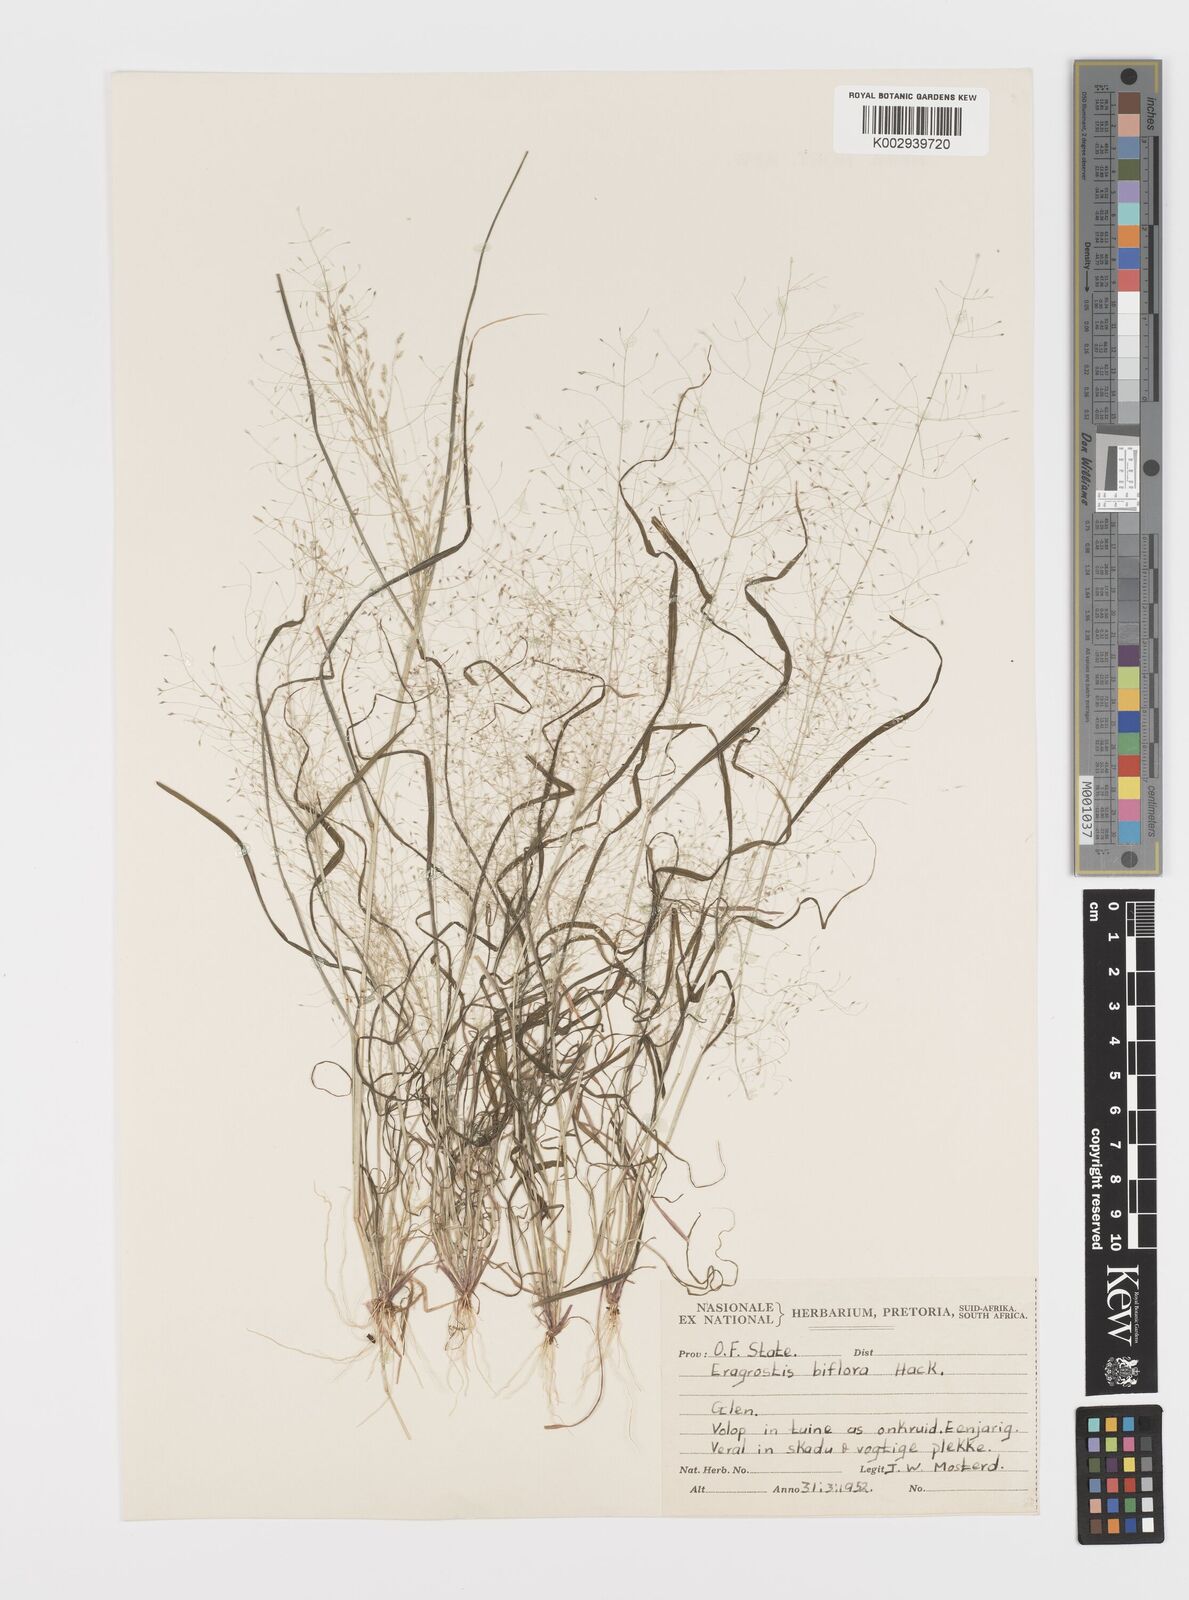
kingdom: Plantae
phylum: Tracheophyta
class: Liliopsida
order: Poales
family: Poaceae
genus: Eragrostis
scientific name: Eragrostis biflora
